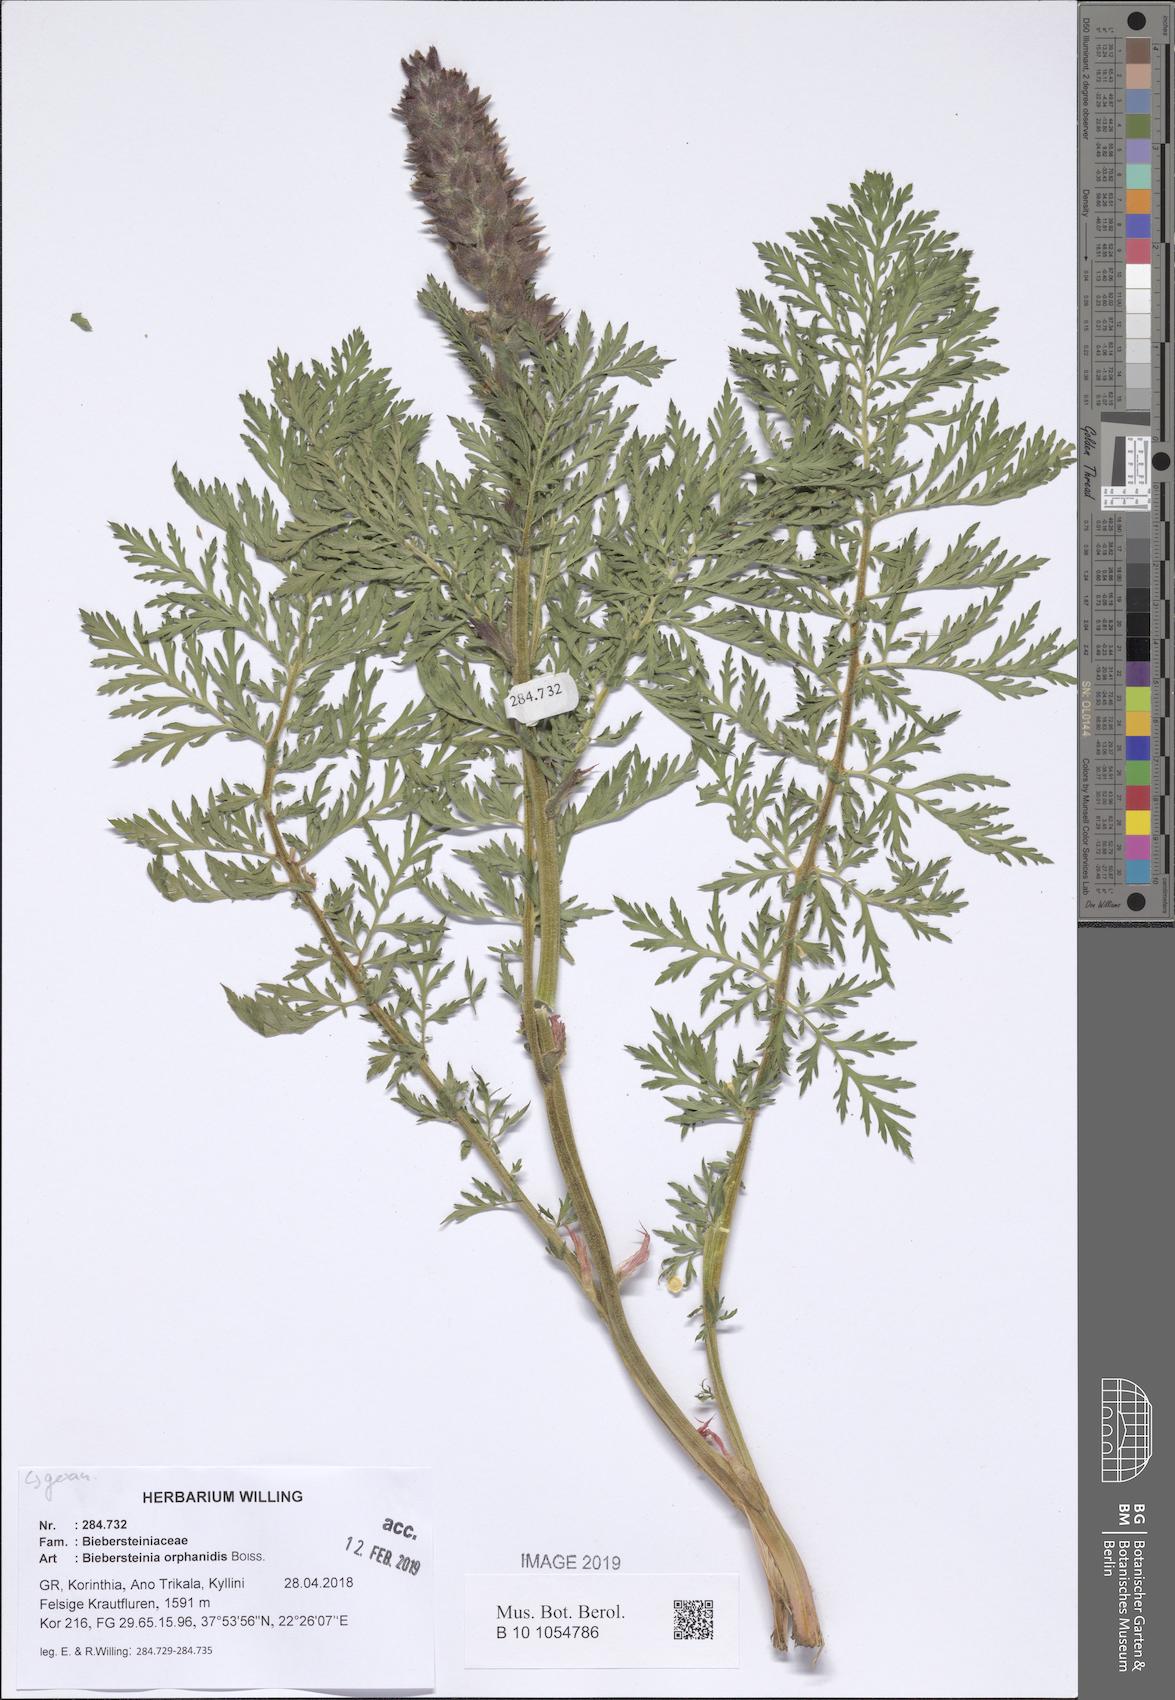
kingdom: Plantae
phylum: Tracheophyta
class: Magnoliopsida
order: Sapindales
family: Biebersteiniaceae
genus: Biebersteinia
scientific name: Biebersteinia orphanidis
